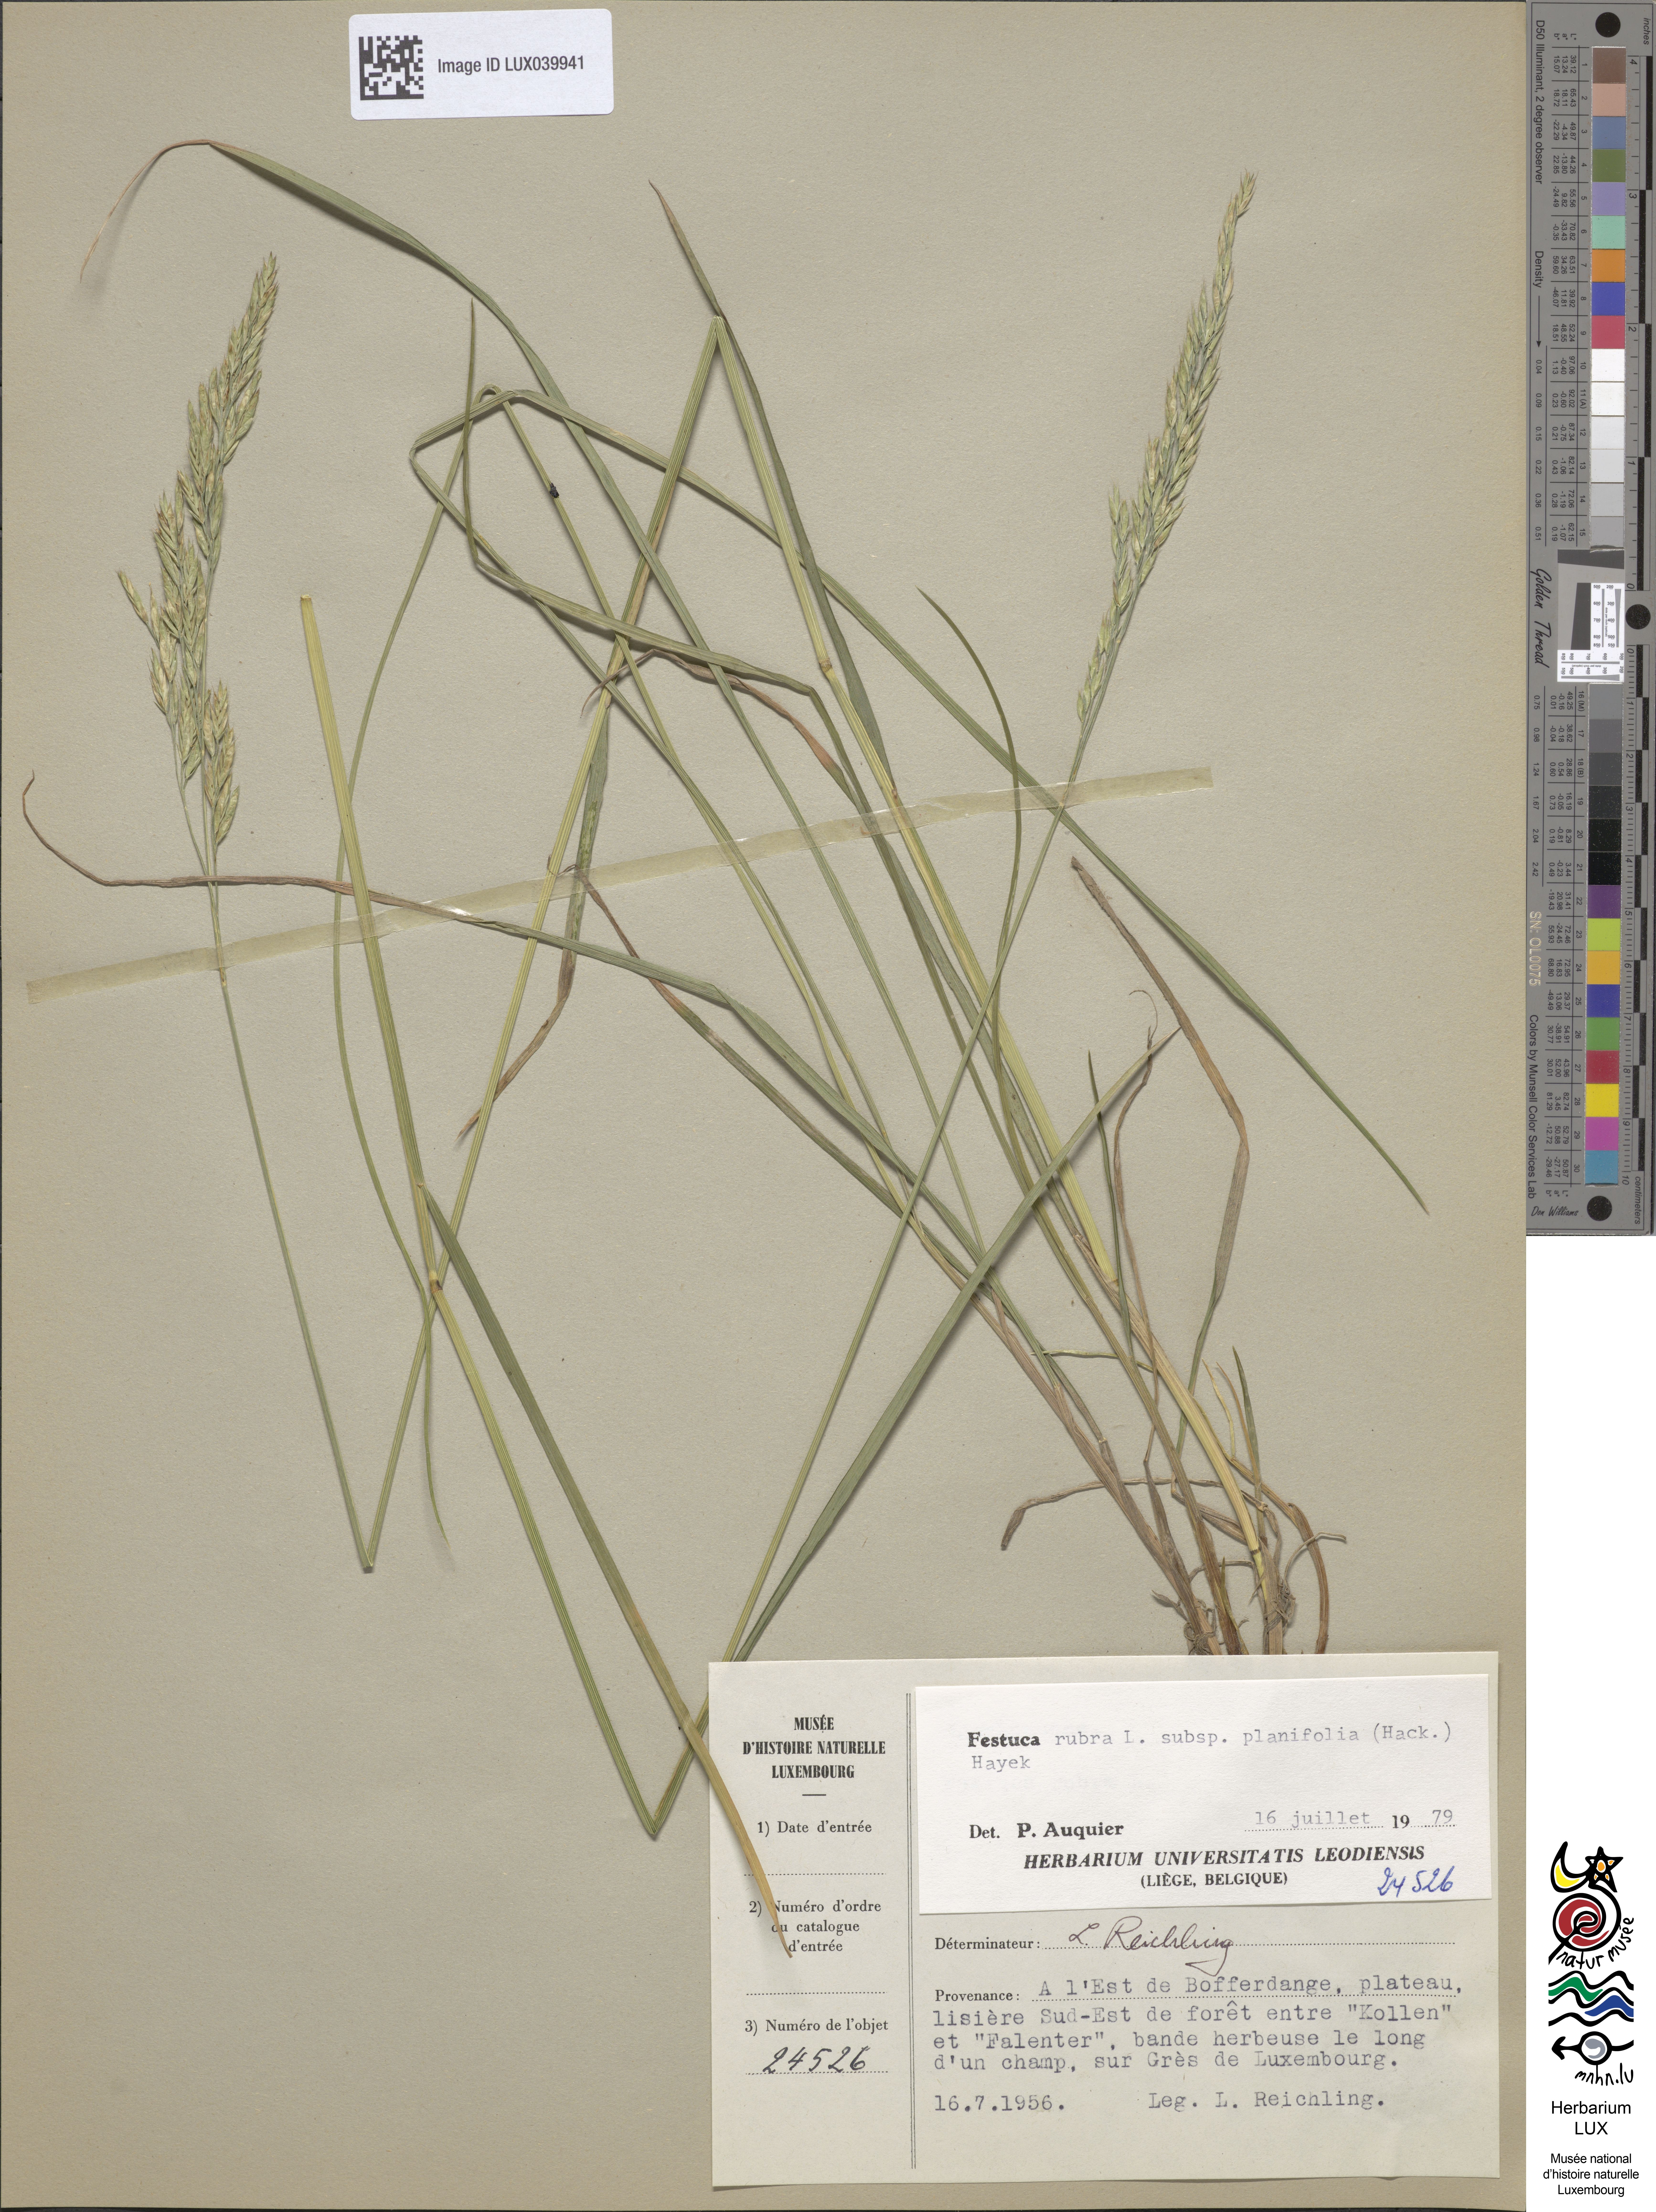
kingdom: Plantae
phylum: Tracheophyta
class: Liliopsida
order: Poales
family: Poaceae
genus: Festuca
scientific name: Festuca rubra
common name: Red fescue
